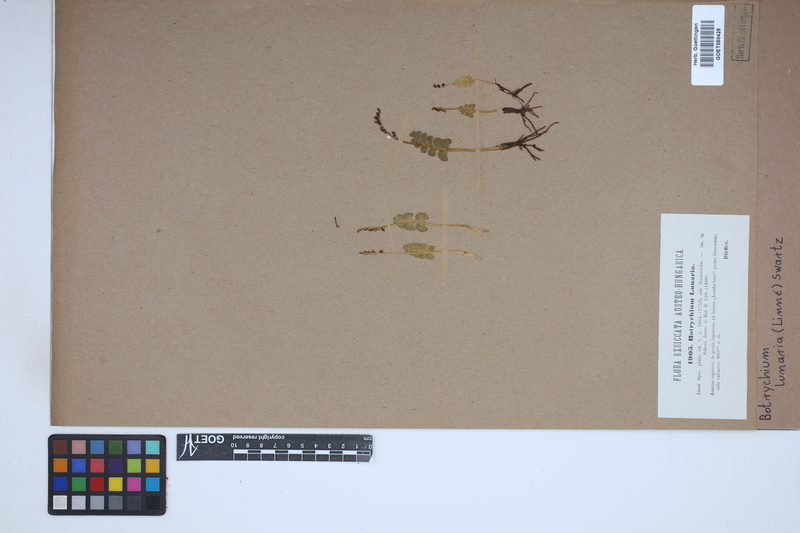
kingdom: Plantae
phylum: Tracheophyta
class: Polypodiopsida
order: Ophioglossales
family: Ophioglossaceae
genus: Botrychium
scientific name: Botrychium lunaria
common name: Moonwort
